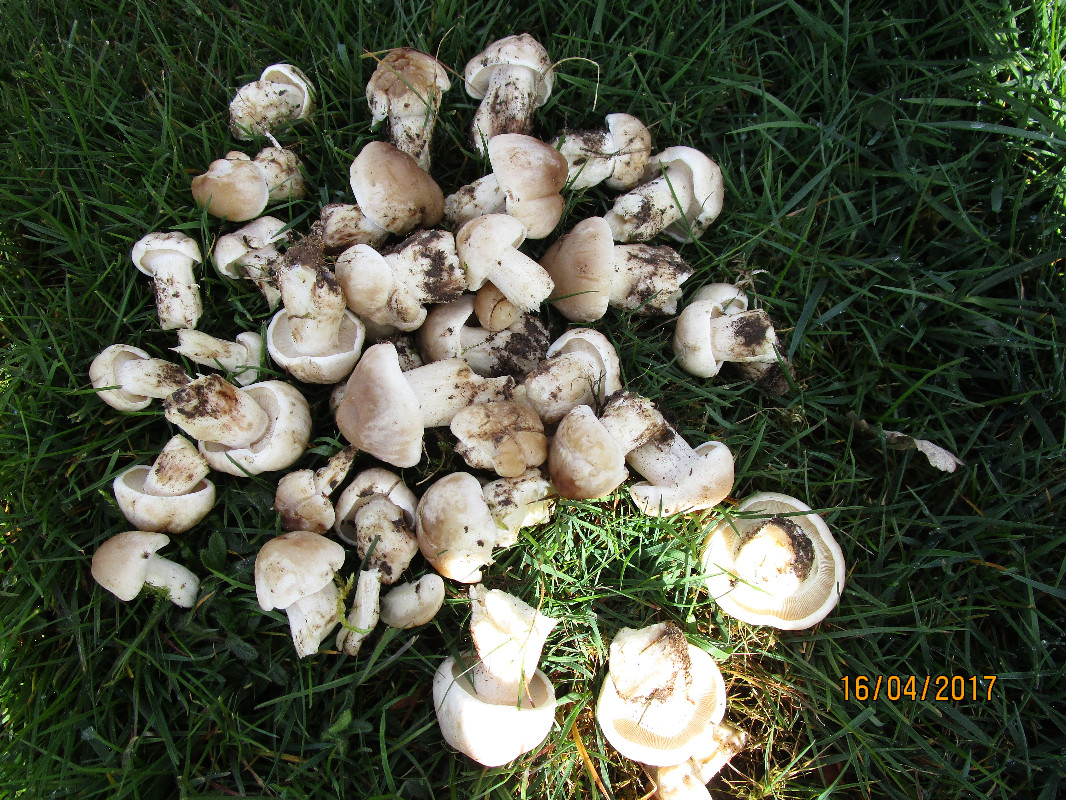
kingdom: Fungi
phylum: Basidiomycota
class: Agaricomycetes
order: Agaricales
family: Lyophyllaceae
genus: Calocybe
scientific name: Calocybe gambosa
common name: vårmusseron
